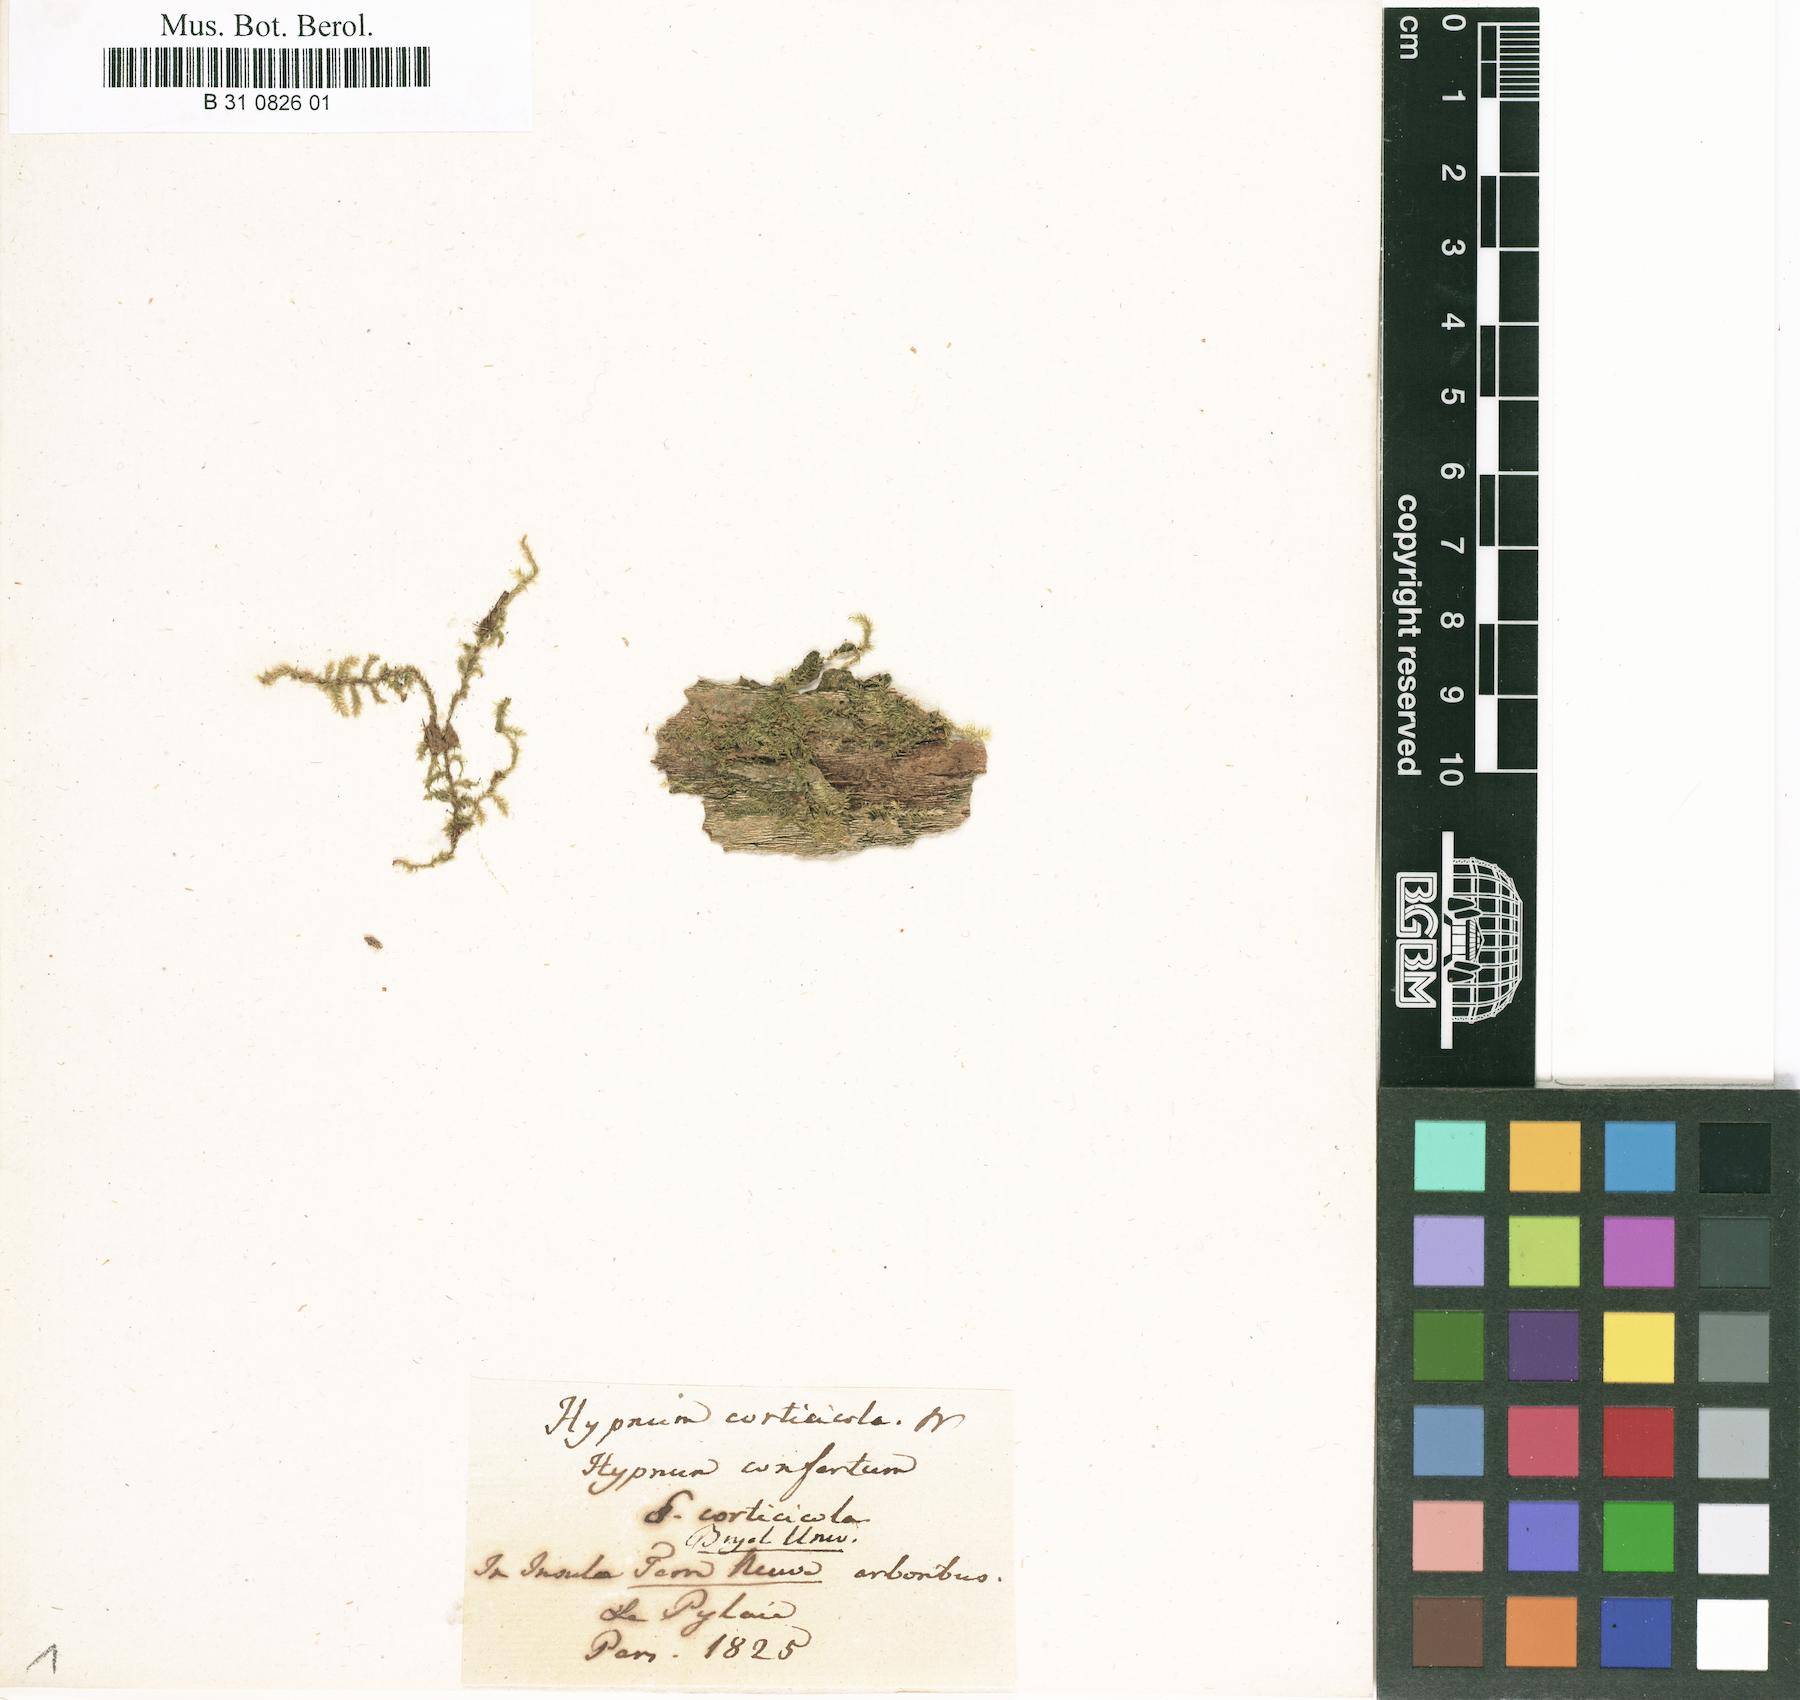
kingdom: Plantae
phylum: Bryophyta
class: Bryopsida
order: Hypnales
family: Brachytheciaceae
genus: Rhynchostegium
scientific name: Rhynchostegium confertum
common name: Clustered feather-moss
